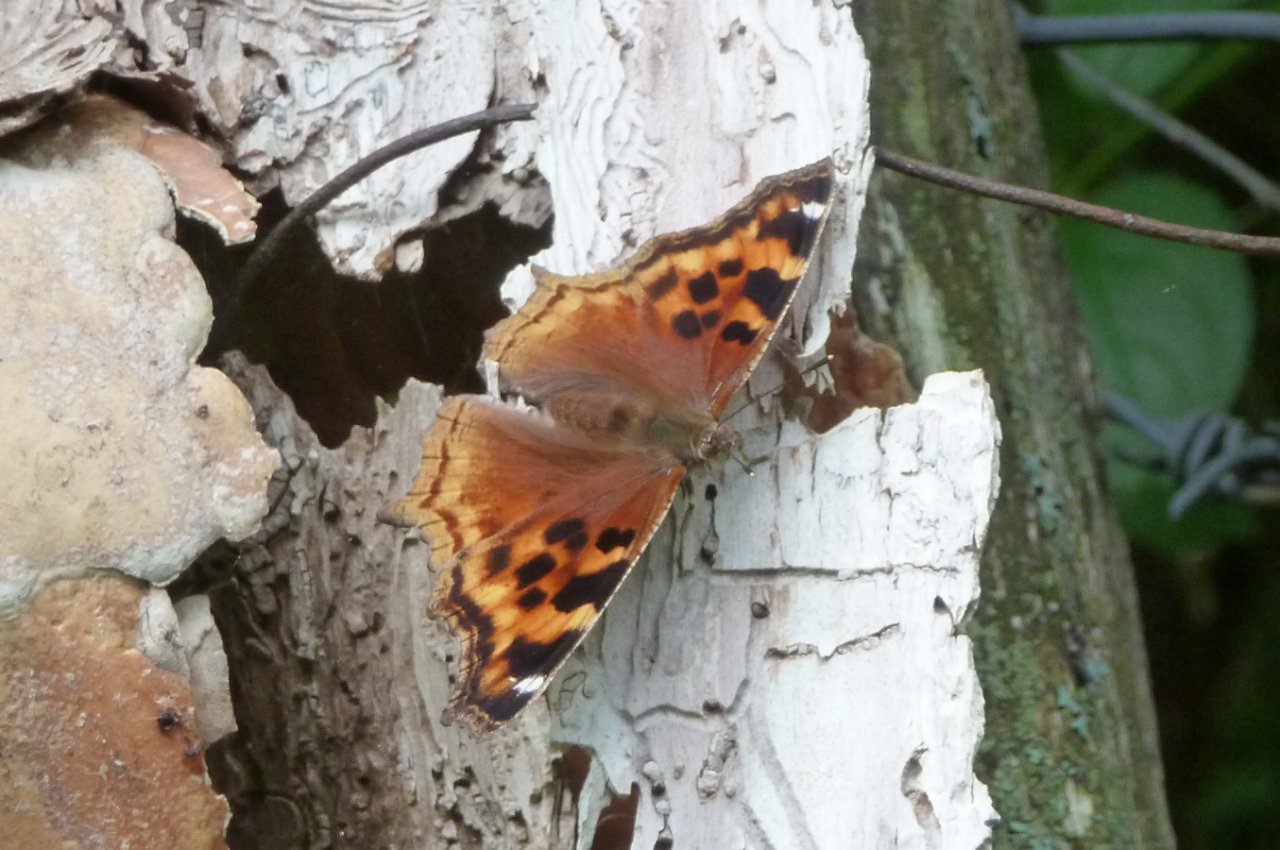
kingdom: Animalia
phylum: Arthropoda
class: Insecta
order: Lepidoptera
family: Nymphalidae
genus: Polygonia
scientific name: Polygonia vaualbum
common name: Compton Tortoiseshell
